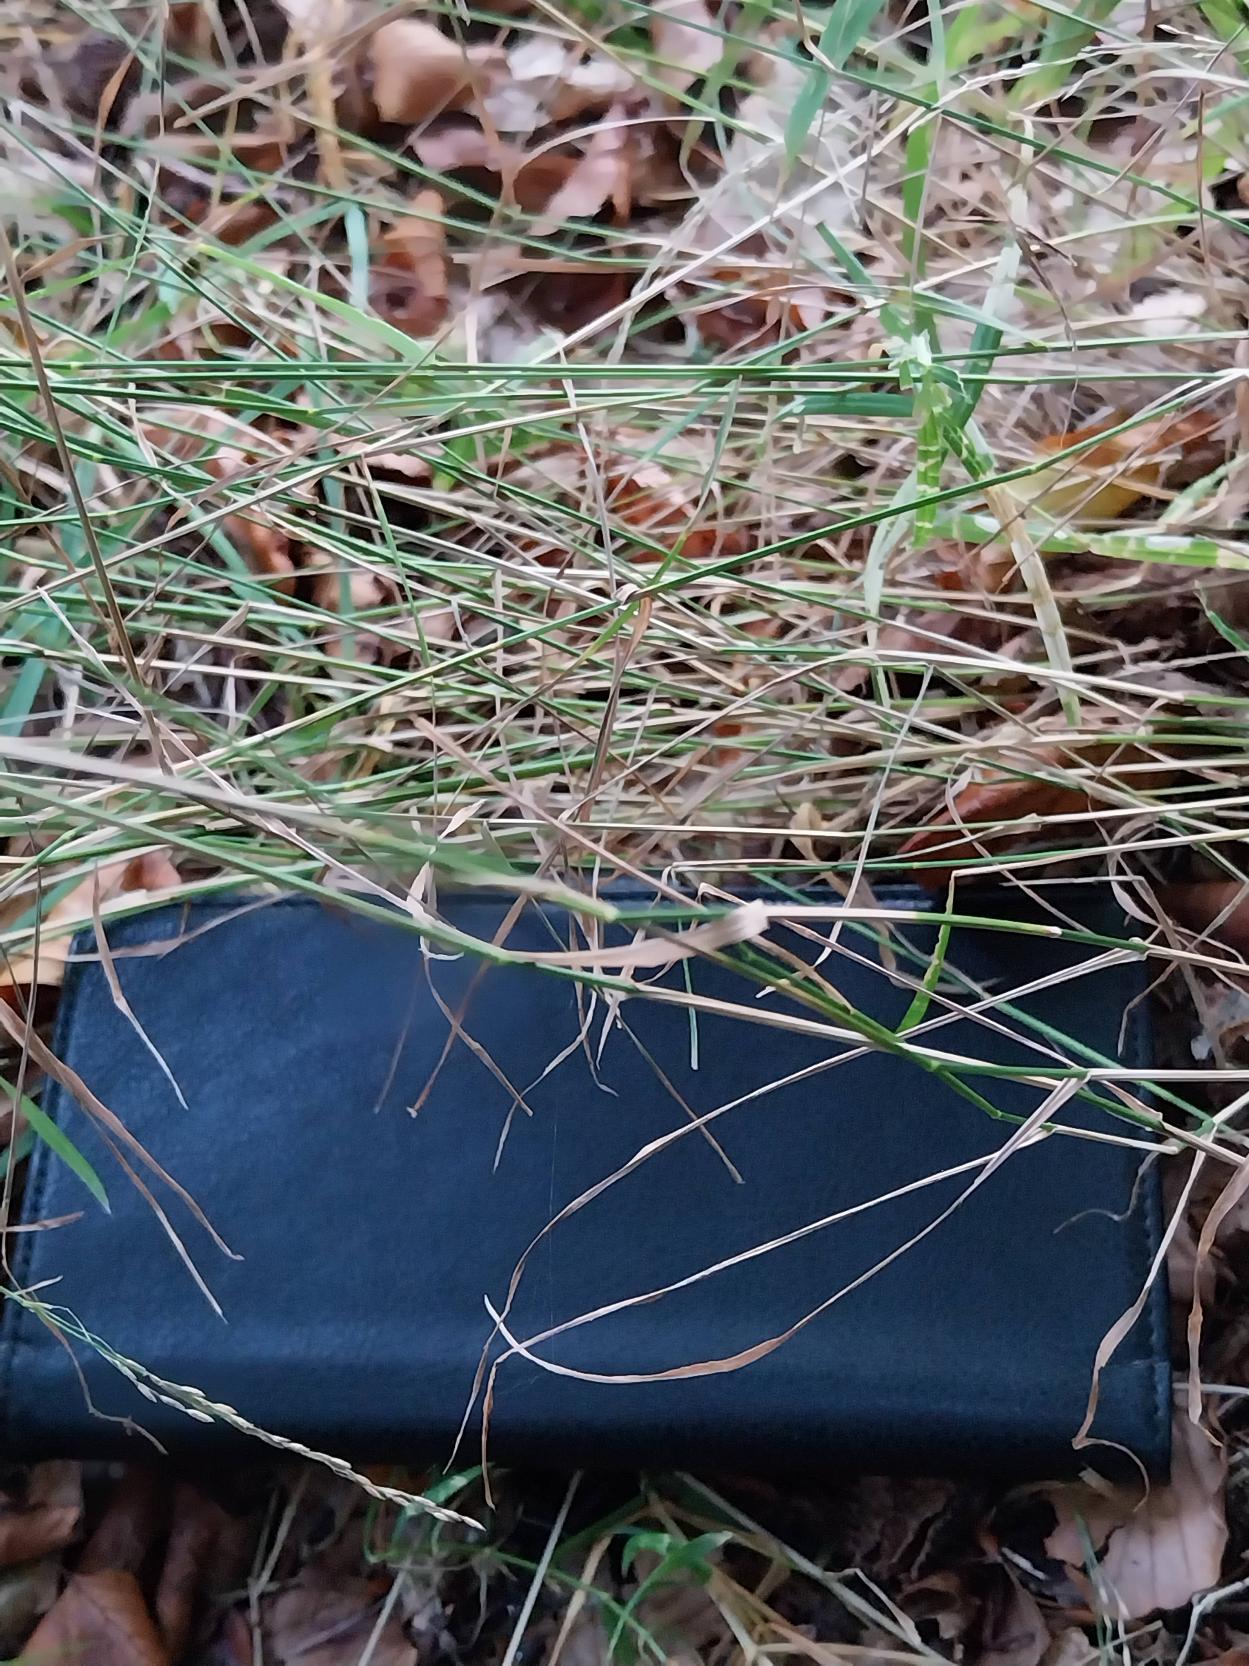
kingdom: Plantae
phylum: Tracheophyta
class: Liliopsida
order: Poales
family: Poaceae
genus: Poa
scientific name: Poa nemoralis
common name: Lund-rapgræs
